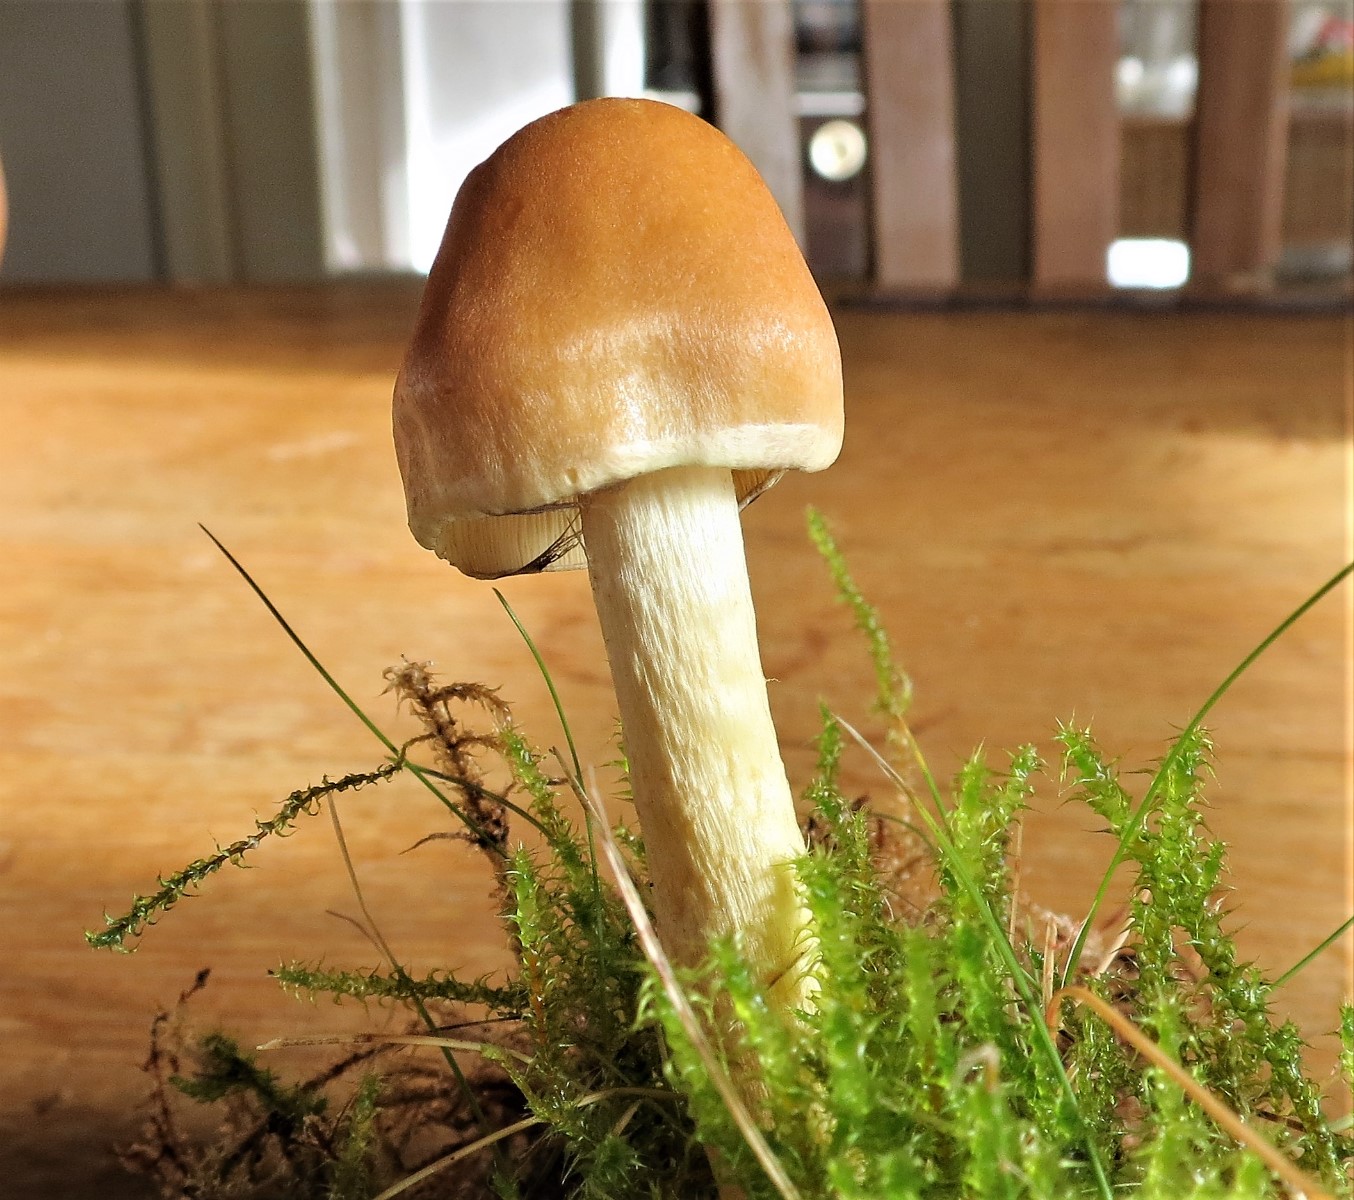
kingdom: Fungi
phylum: Basidiomycota
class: Agaricomycetes
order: Agaricales
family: Strophariaceae
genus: Hypholoma
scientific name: Hypholoma
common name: svovlhat
